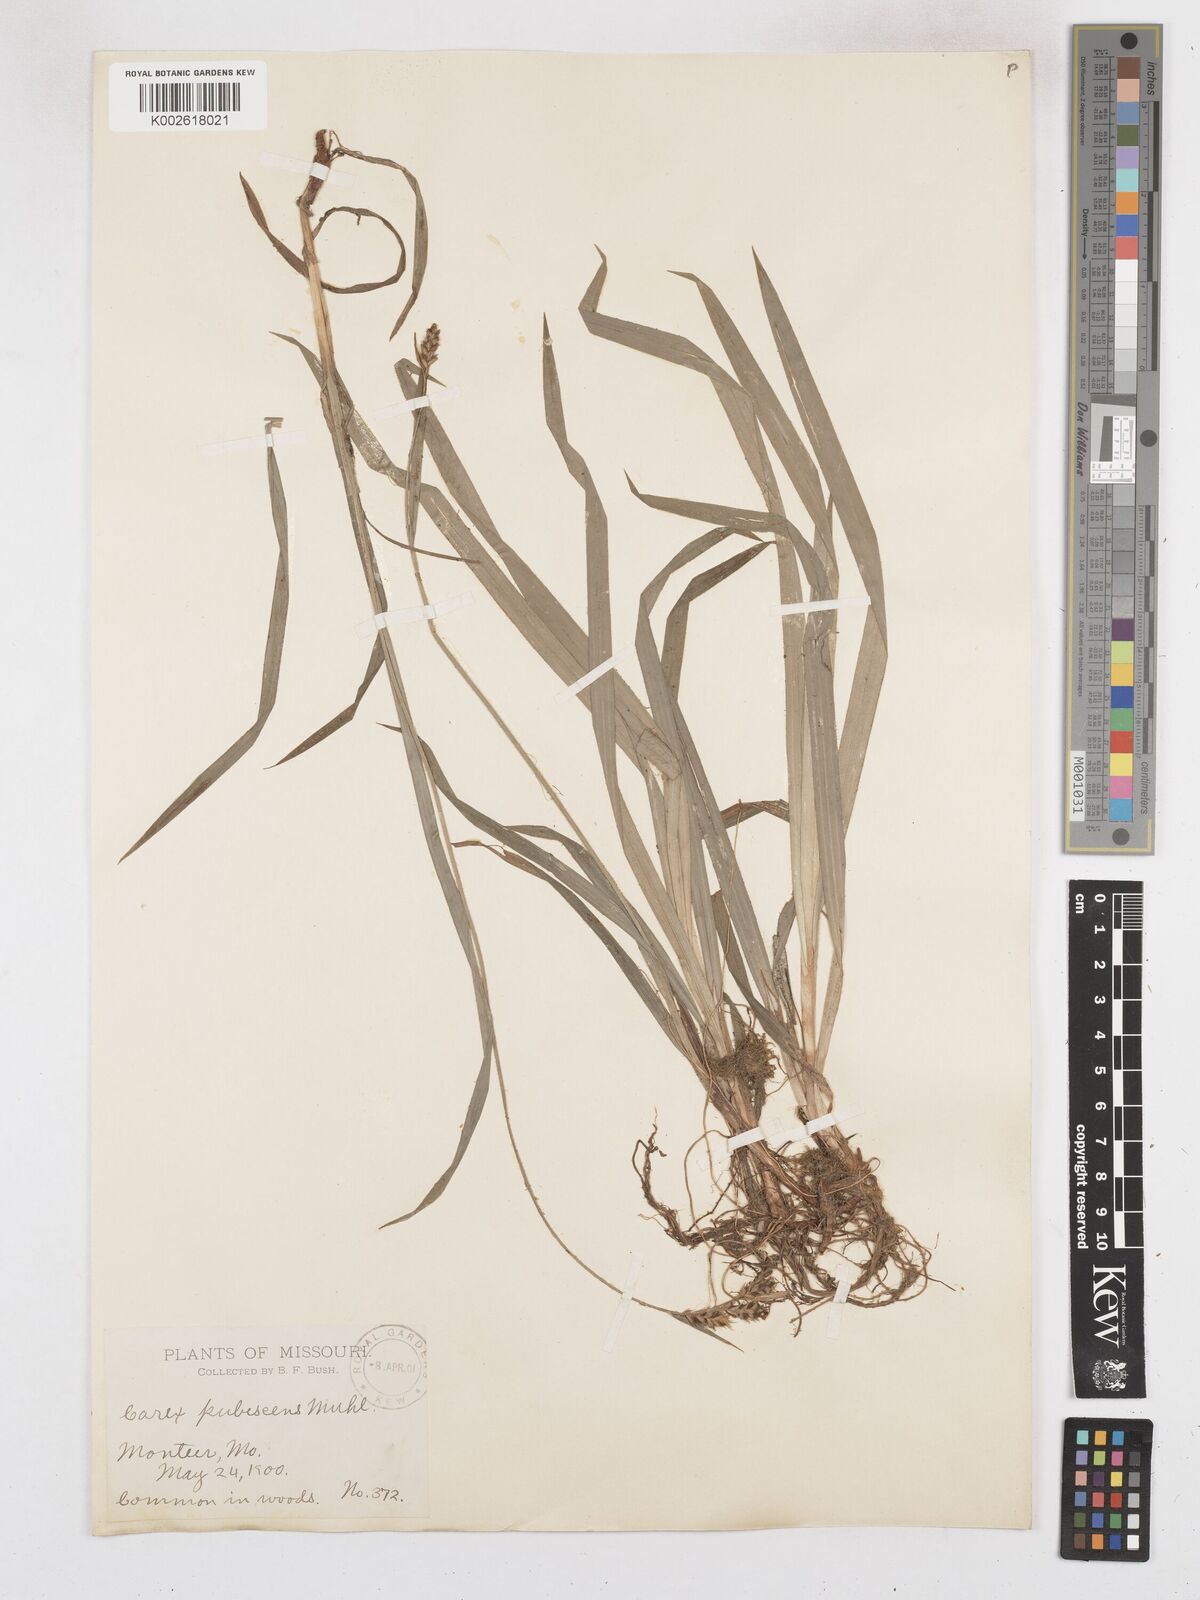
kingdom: Plantae
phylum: Tracheophyta
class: Liliopsida
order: Poales
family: Cyperaceae
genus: Carex
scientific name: Carex hirtifolia
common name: Hairy sedge
